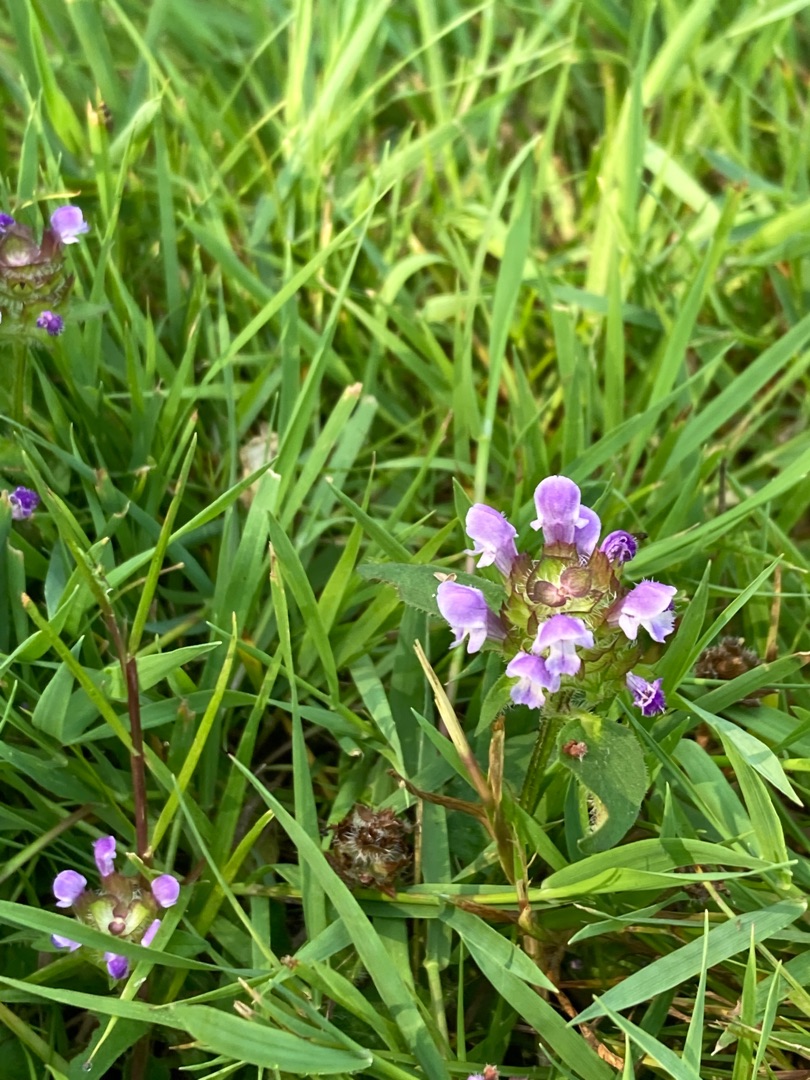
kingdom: Plantae
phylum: Tracheophyta
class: Magnoliopsida
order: Lamiales
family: Lamiaceae
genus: Prunella
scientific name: Prunella vulgaris
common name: Almindelig brunelle
